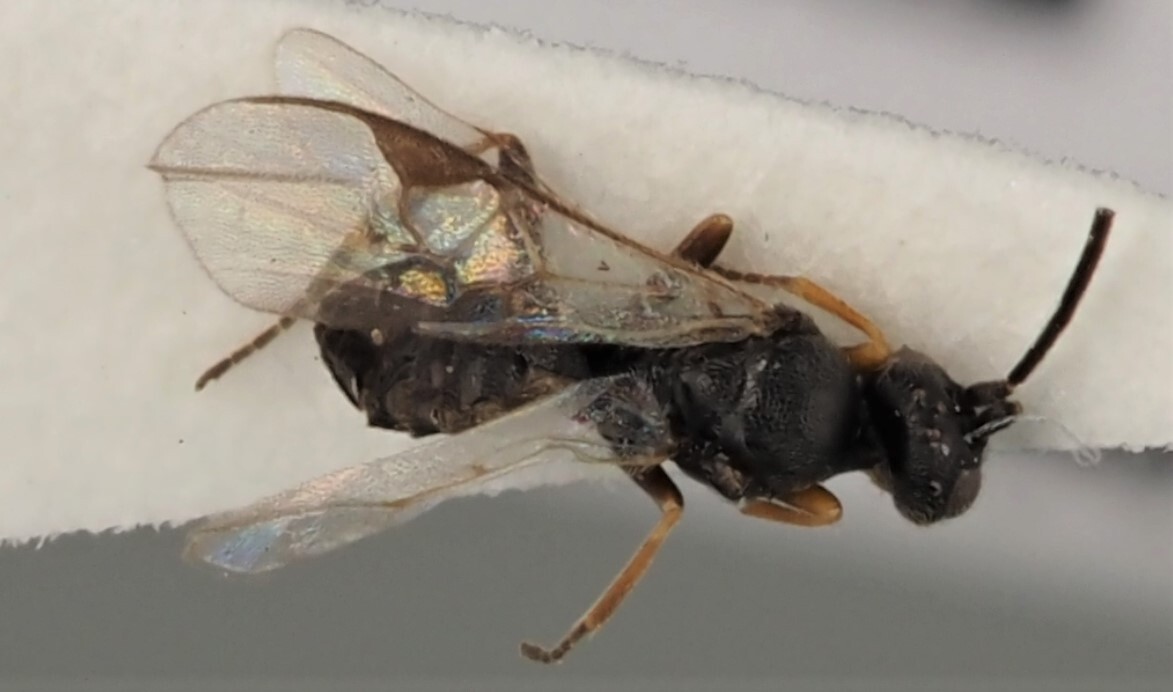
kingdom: Animalia
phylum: Arthropoda
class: Insecta
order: Hymenoptera
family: Braconidae
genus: Deuterixys
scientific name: Deuterixys rimulosa
